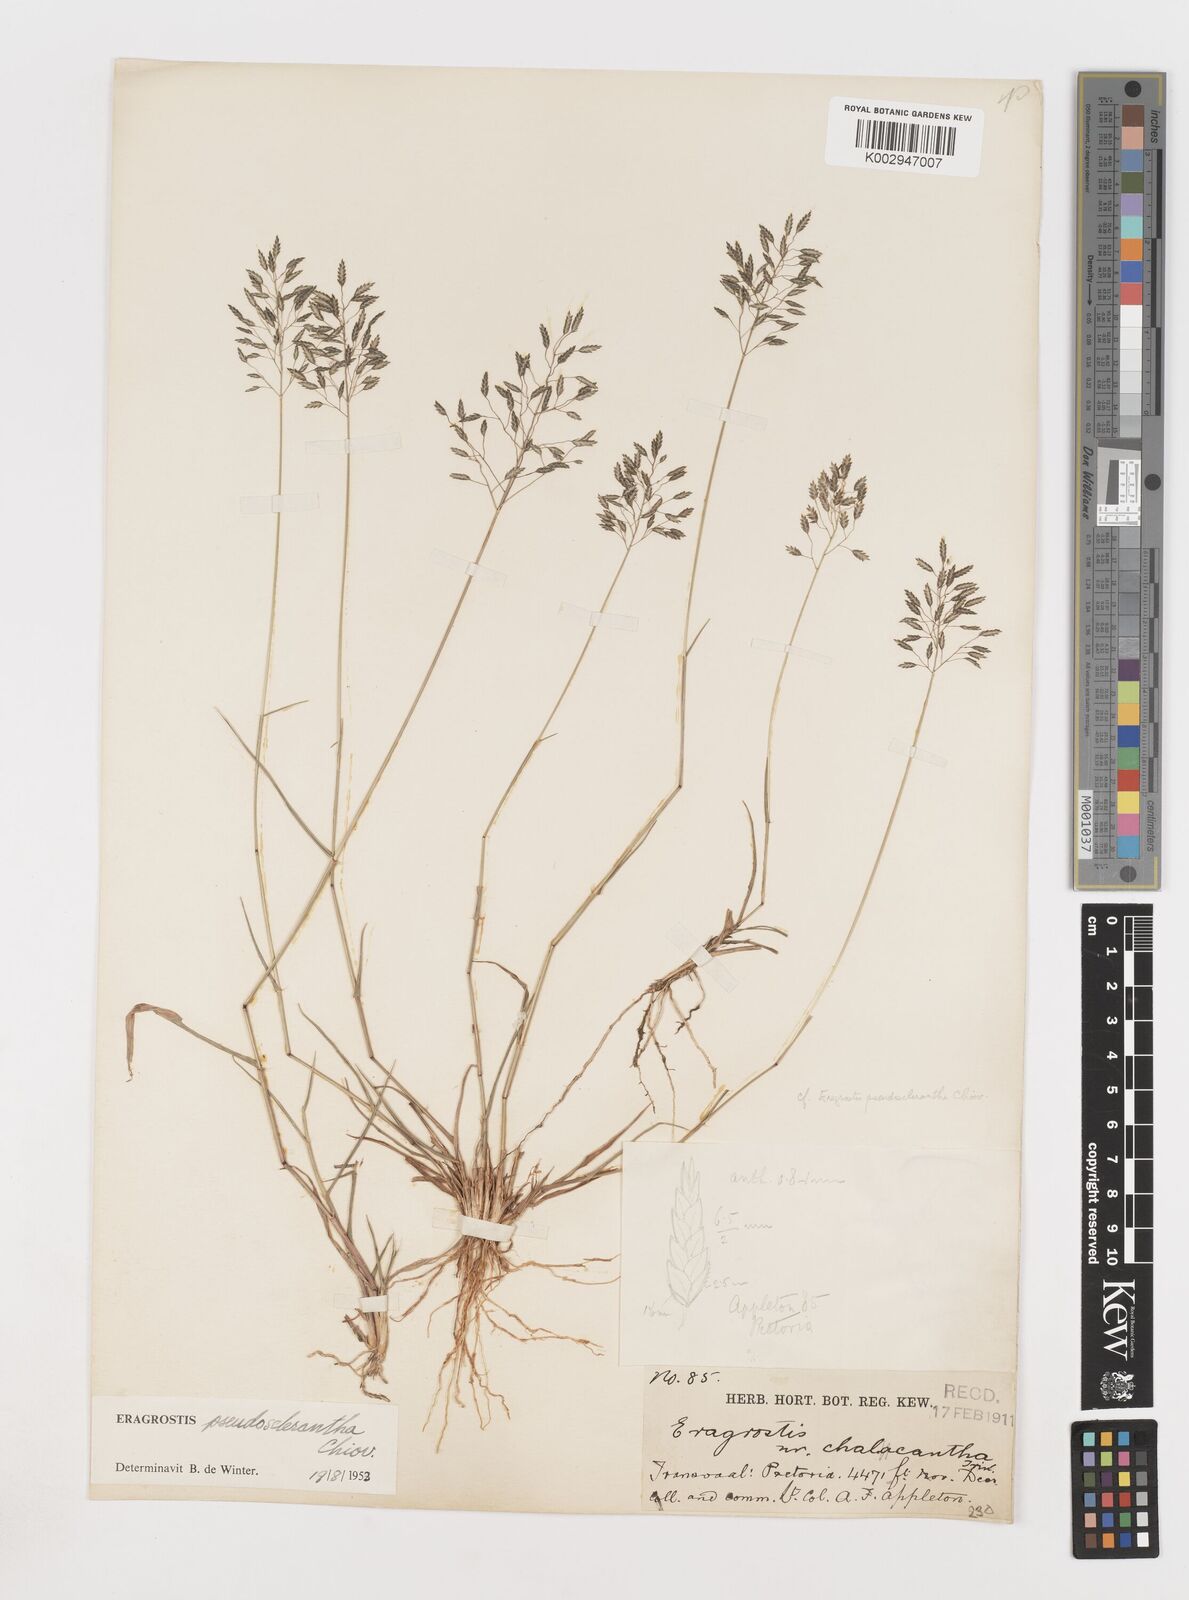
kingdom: Plantae
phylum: Tracheophyta
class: Liliopsida
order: Poales
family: Poaceae
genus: Eragrostis
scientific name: Eragrostis patentipilosa
